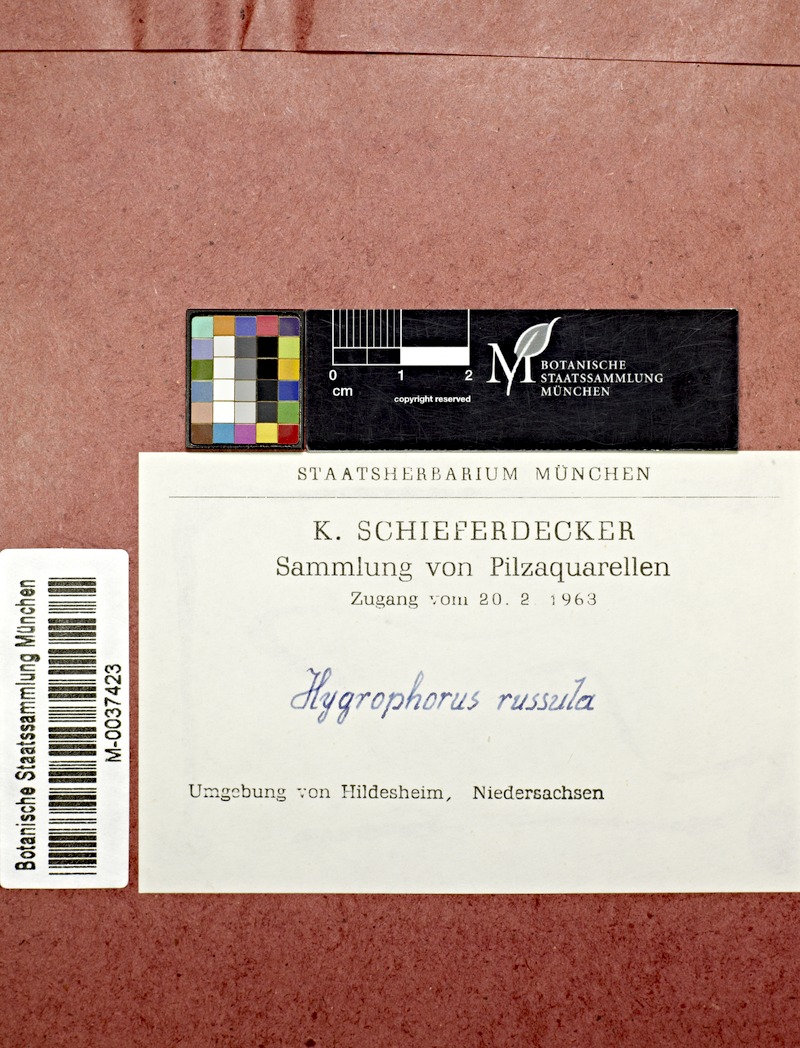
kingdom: Fungi
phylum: Basidiomycota
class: Agaricomycetes
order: Agaricales
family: Hygrophoraceae
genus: Hygrophorus
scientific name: Hygrophorus russula
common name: Pinkmottle woodwax
